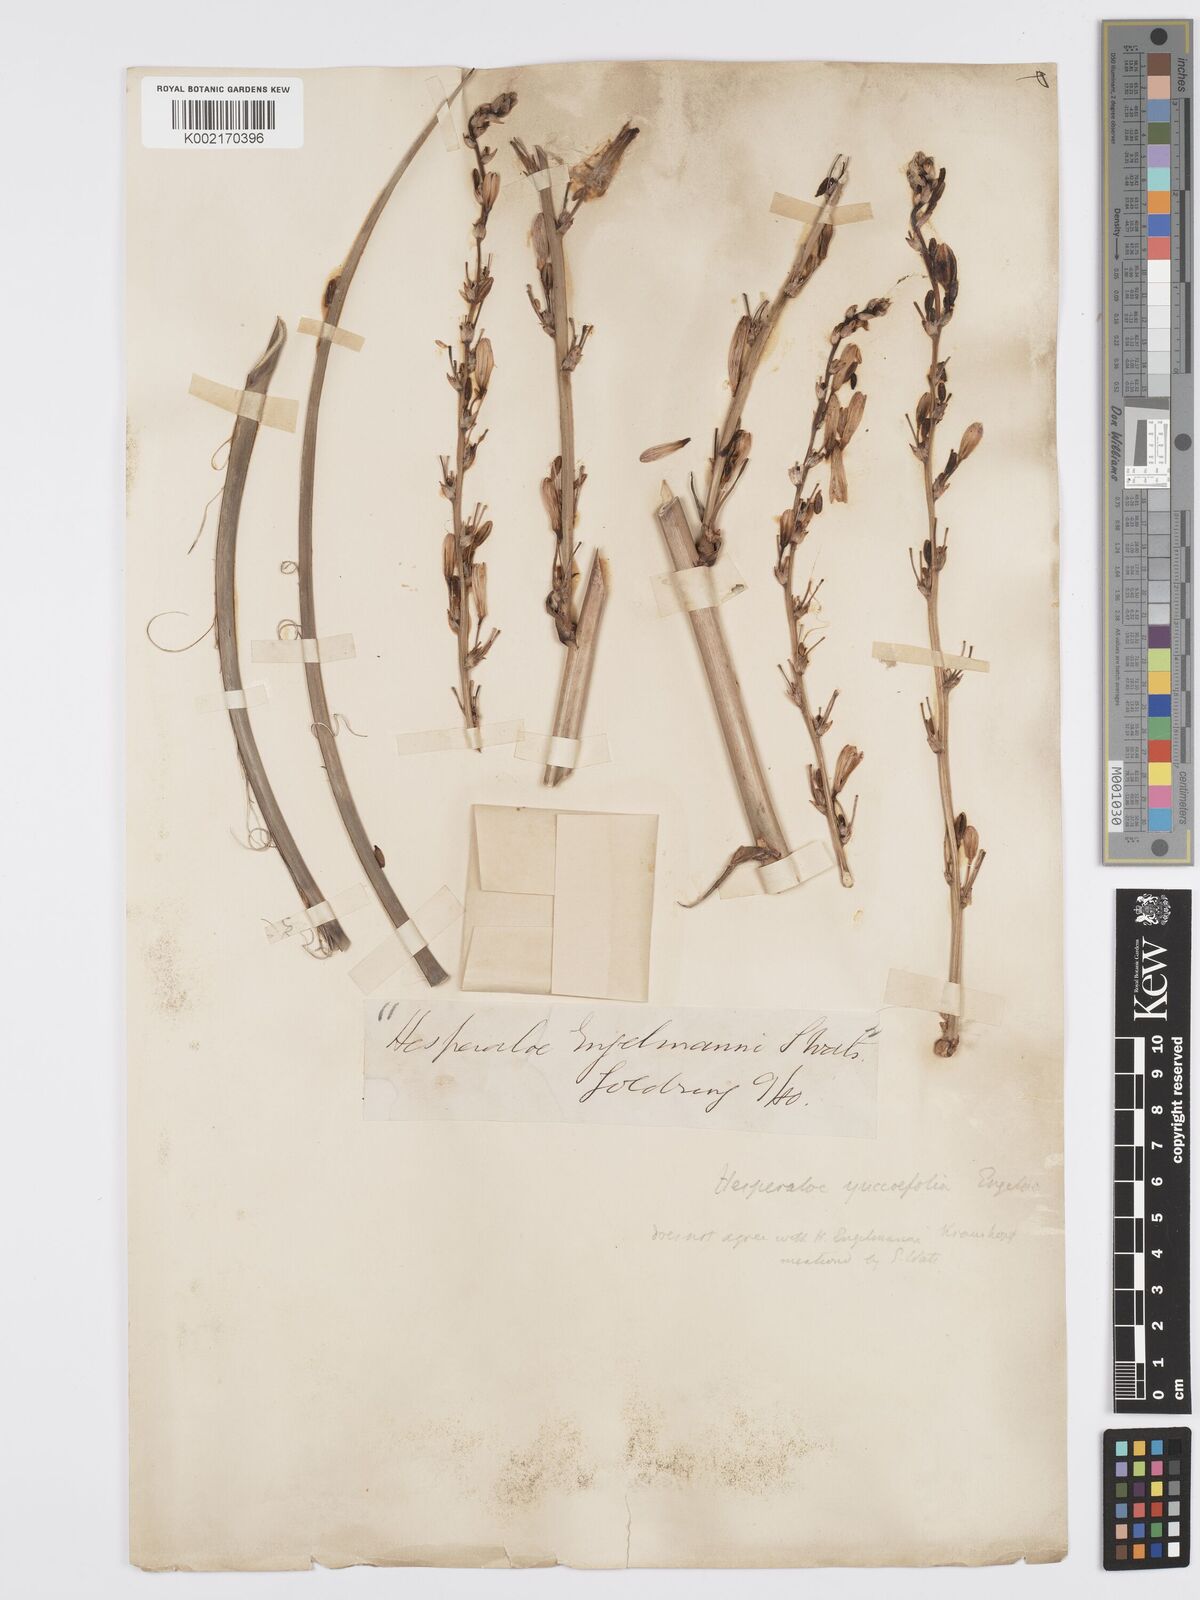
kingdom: Plantae
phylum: Tracheophyta
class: Liliopsida
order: Asparagales
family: Asparagaceae
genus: Hesperaloe
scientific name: Hesperaloe parviflora
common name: Red hesperaloe
